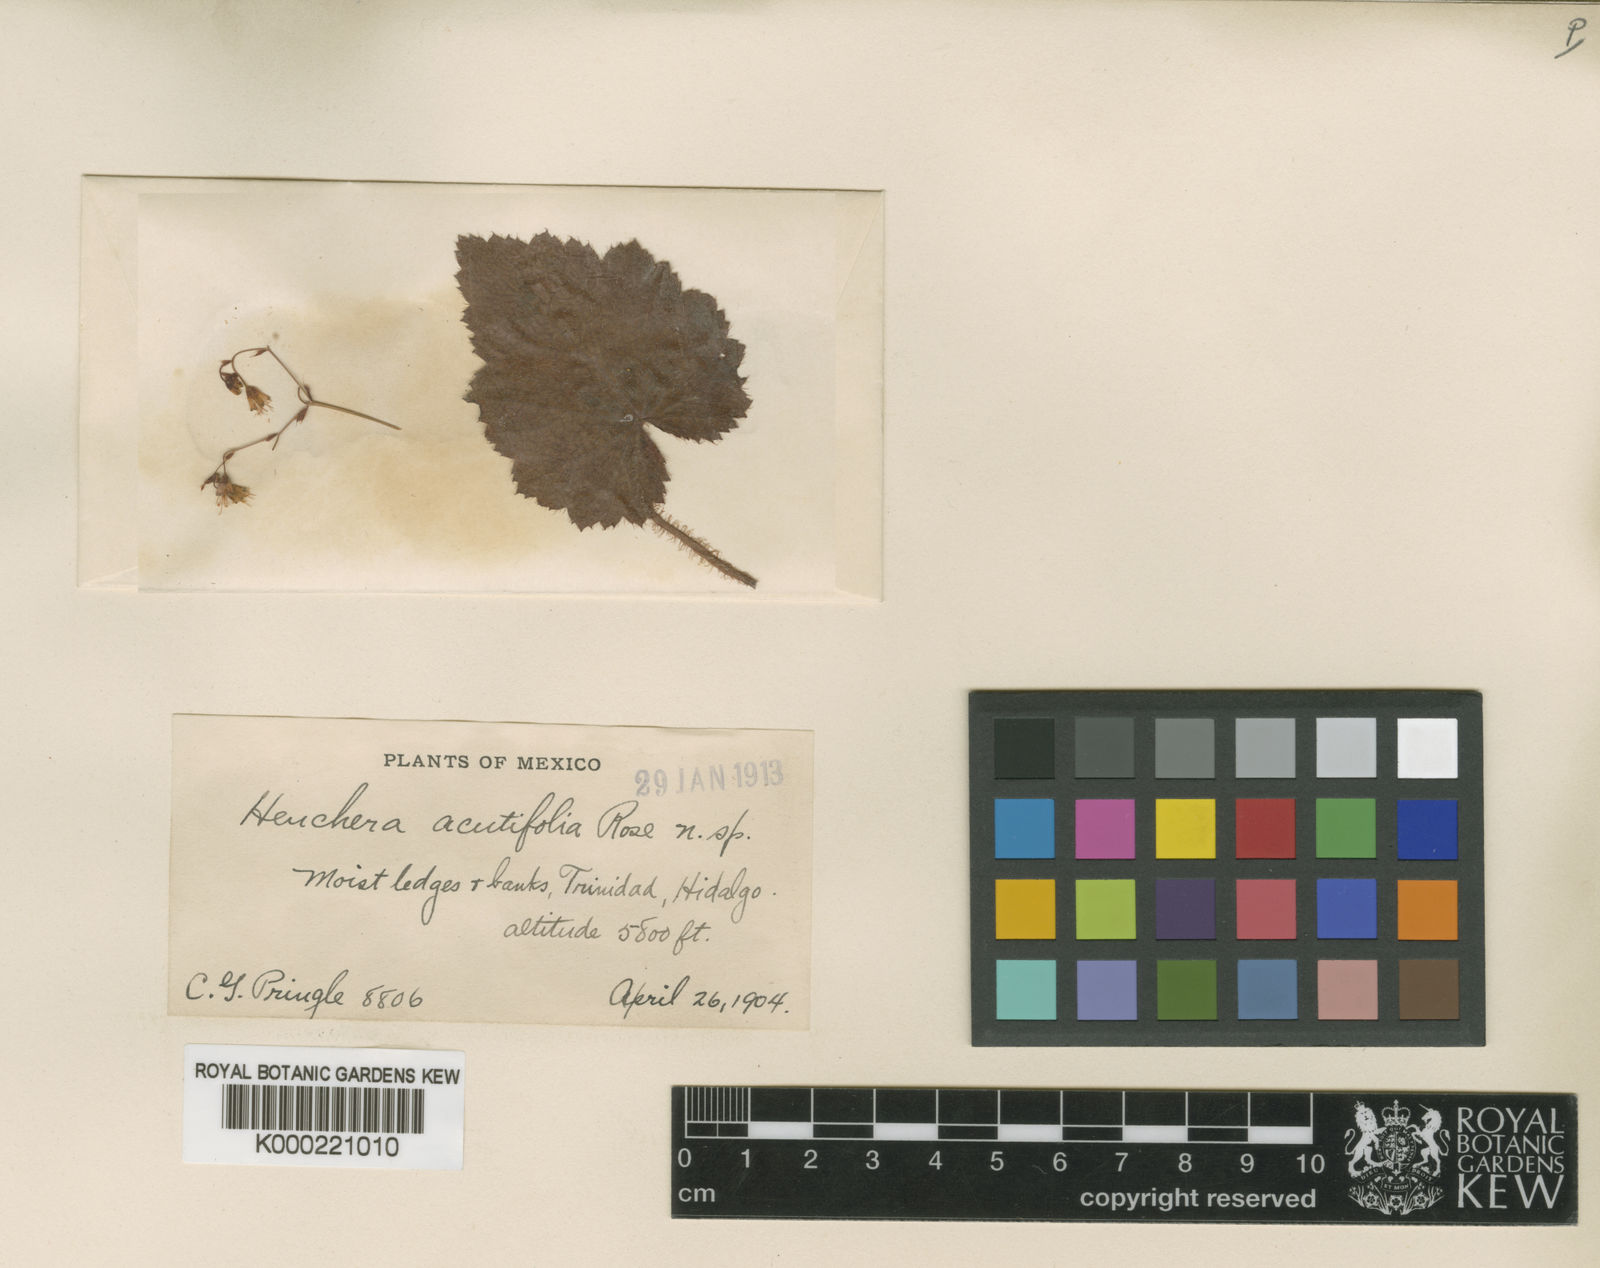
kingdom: Plantae
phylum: Tracheophyta
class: Magnoliopsida
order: Saxifragales
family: Saxifragaceae
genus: Heuchera
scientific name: Heuchera acutifolia
